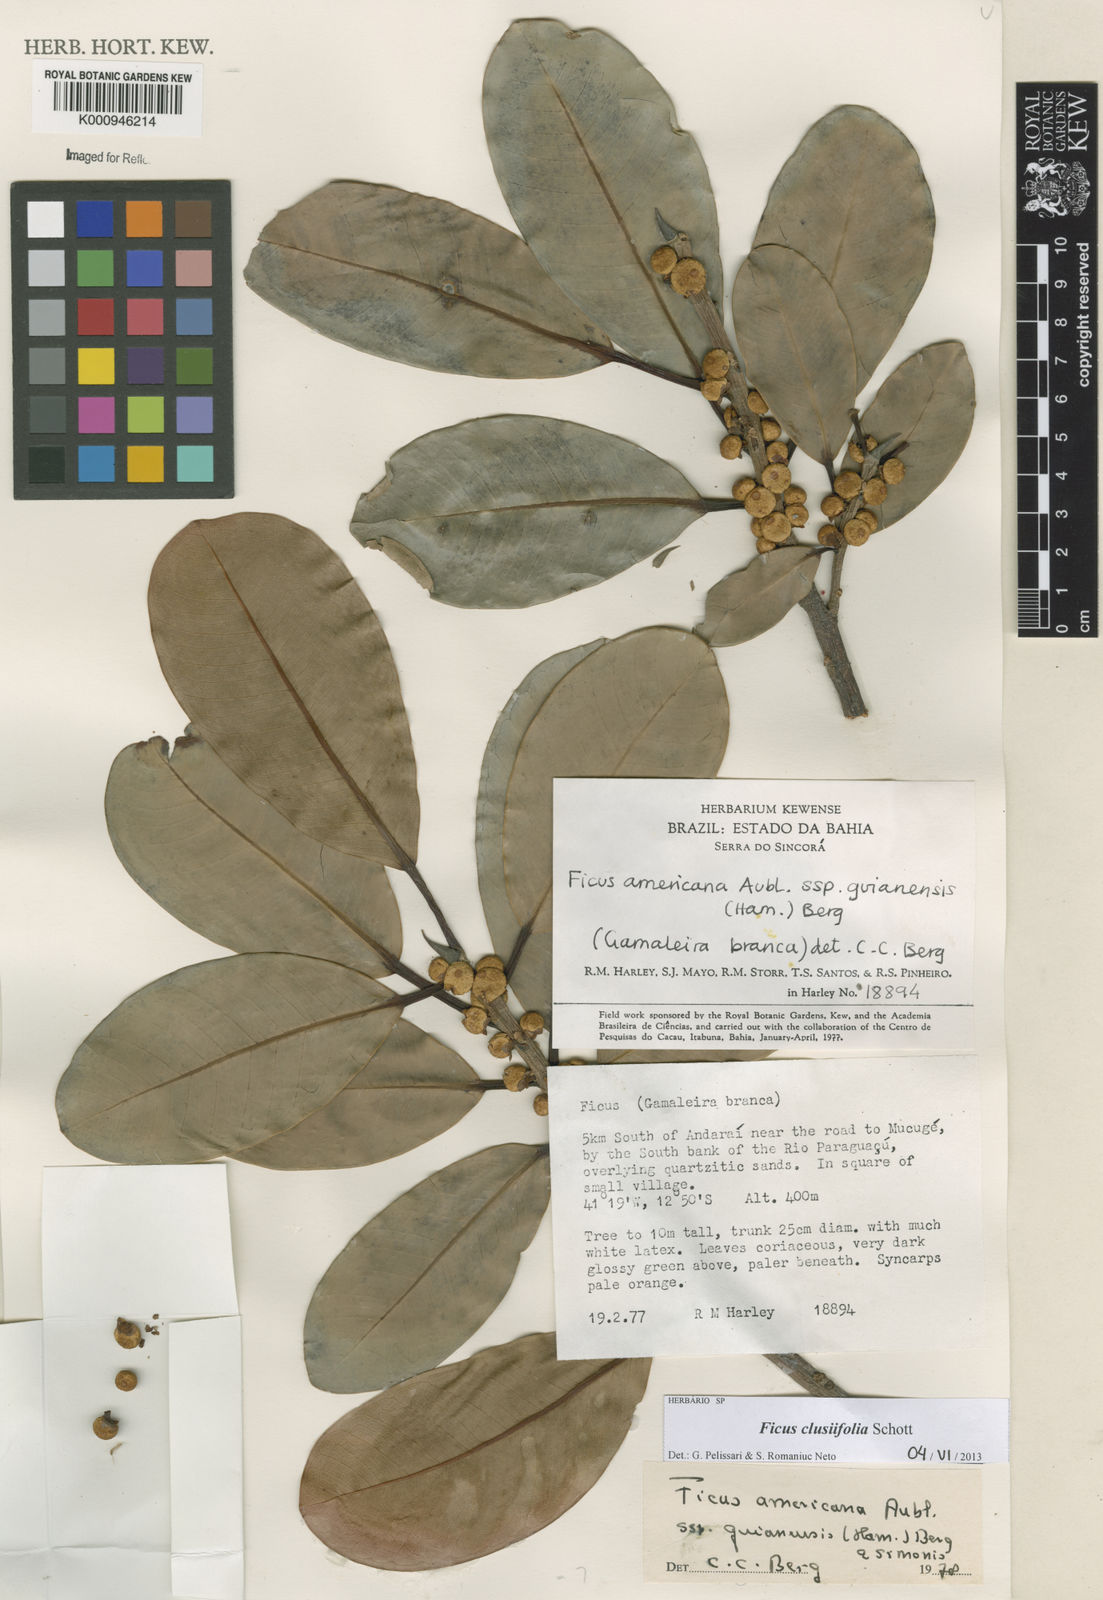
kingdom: Plantae
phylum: Tracheophyta
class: Magnoliopsida
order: Rosales
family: Moraceae
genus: Ficus
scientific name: Ficus
